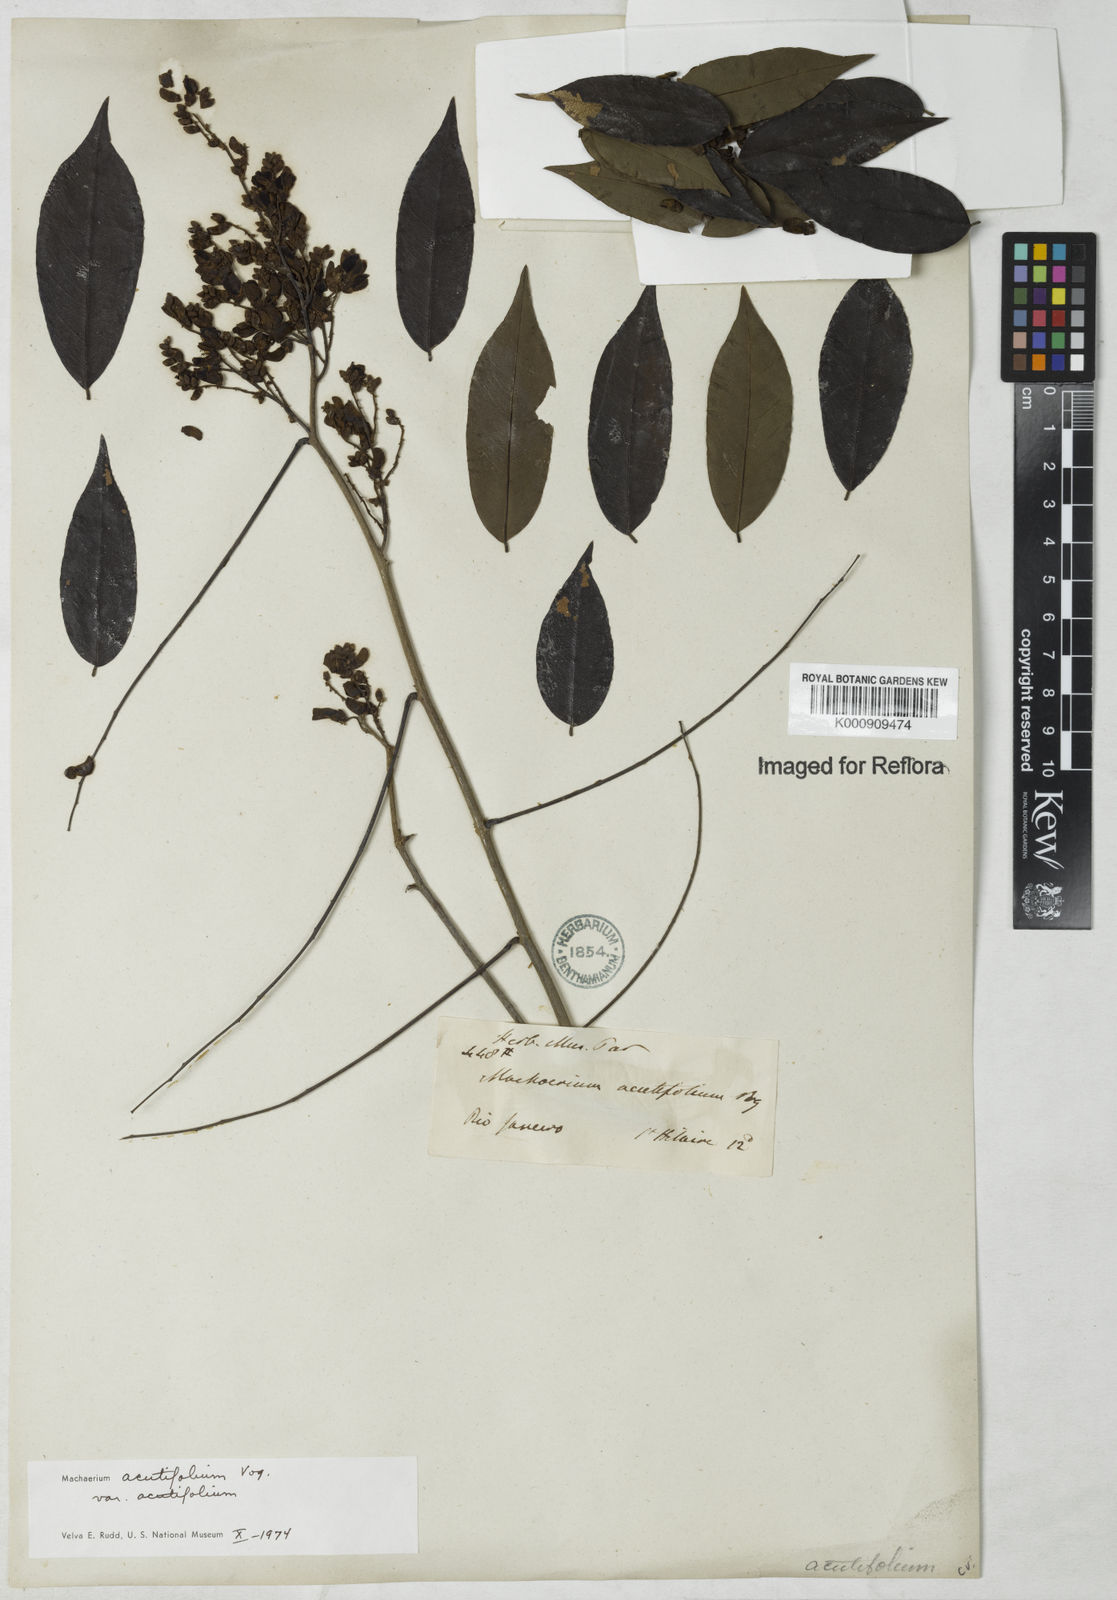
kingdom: Plantae
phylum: Tracheophyta
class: Magnoliopsida
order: Fabales
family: Fabaceae
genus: Machaerium
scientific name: Machaerium acutifolium
